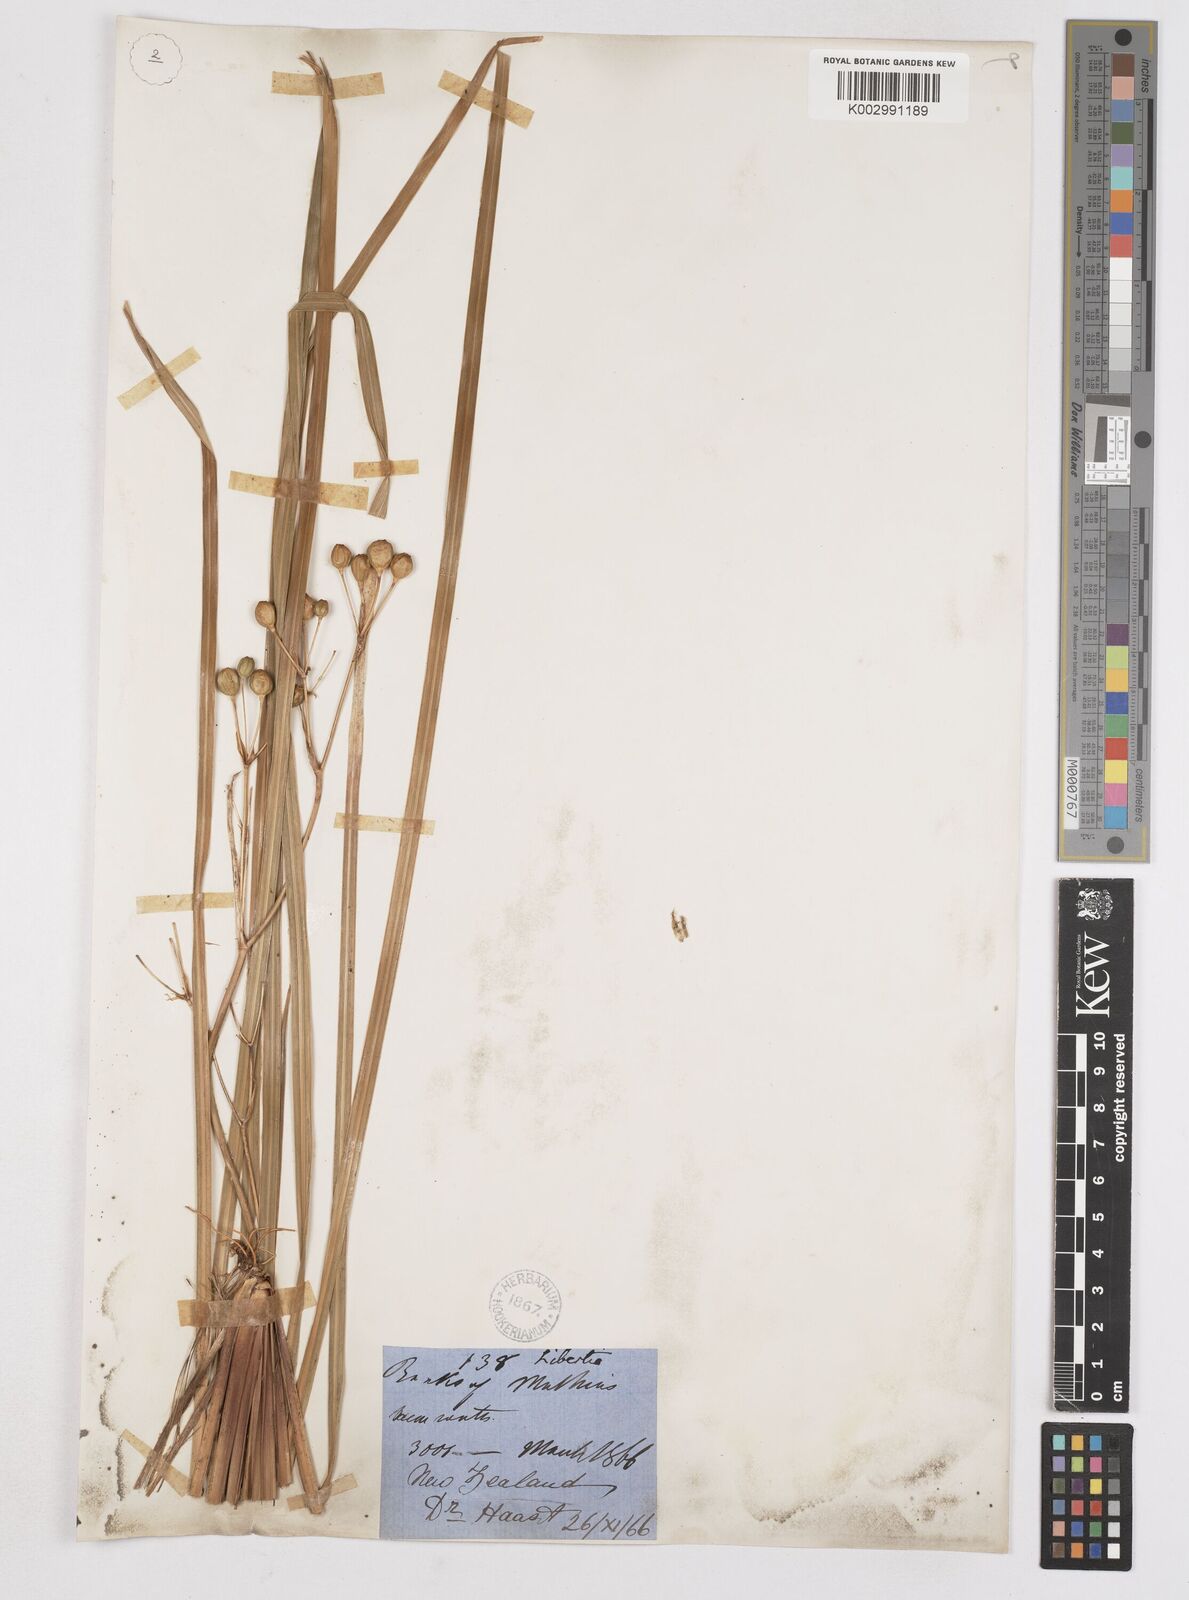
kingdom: Plantae
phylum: Tracheophyta
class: Liliopsida
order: Asparagales
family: Iridaceae
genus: Libertia
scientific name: Libertia ixioides
